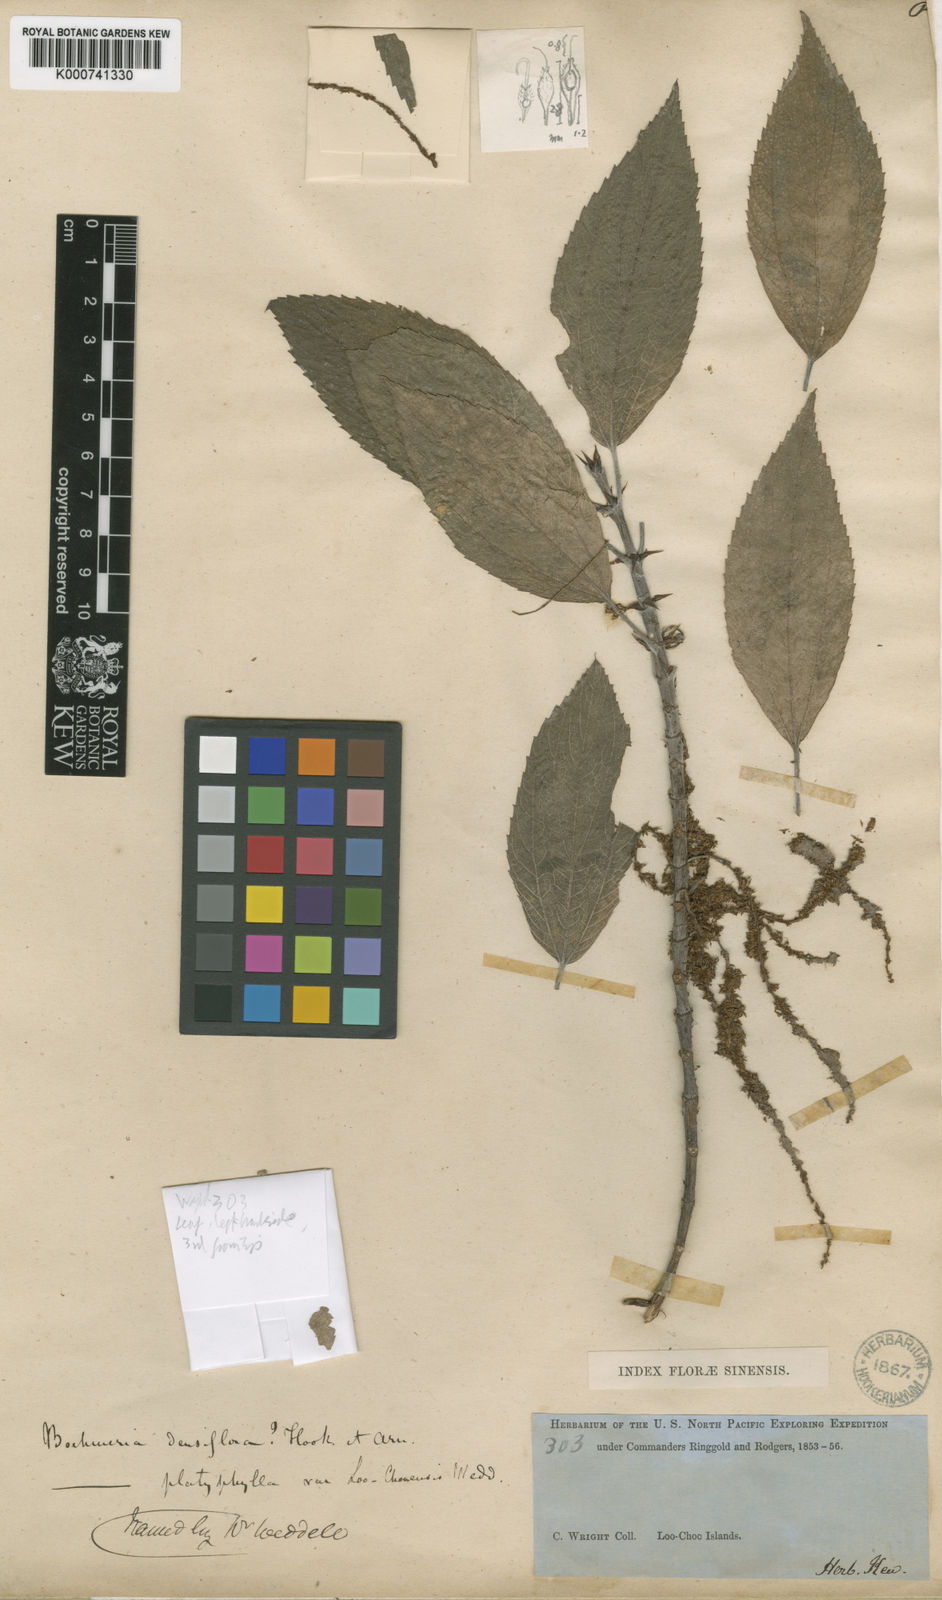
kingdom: Plantae
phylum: Tracheophyta
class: Magnoliopsida
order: Rosales
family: Urticaceae
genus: Boehmeria
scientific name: Boehmeria densiflora
